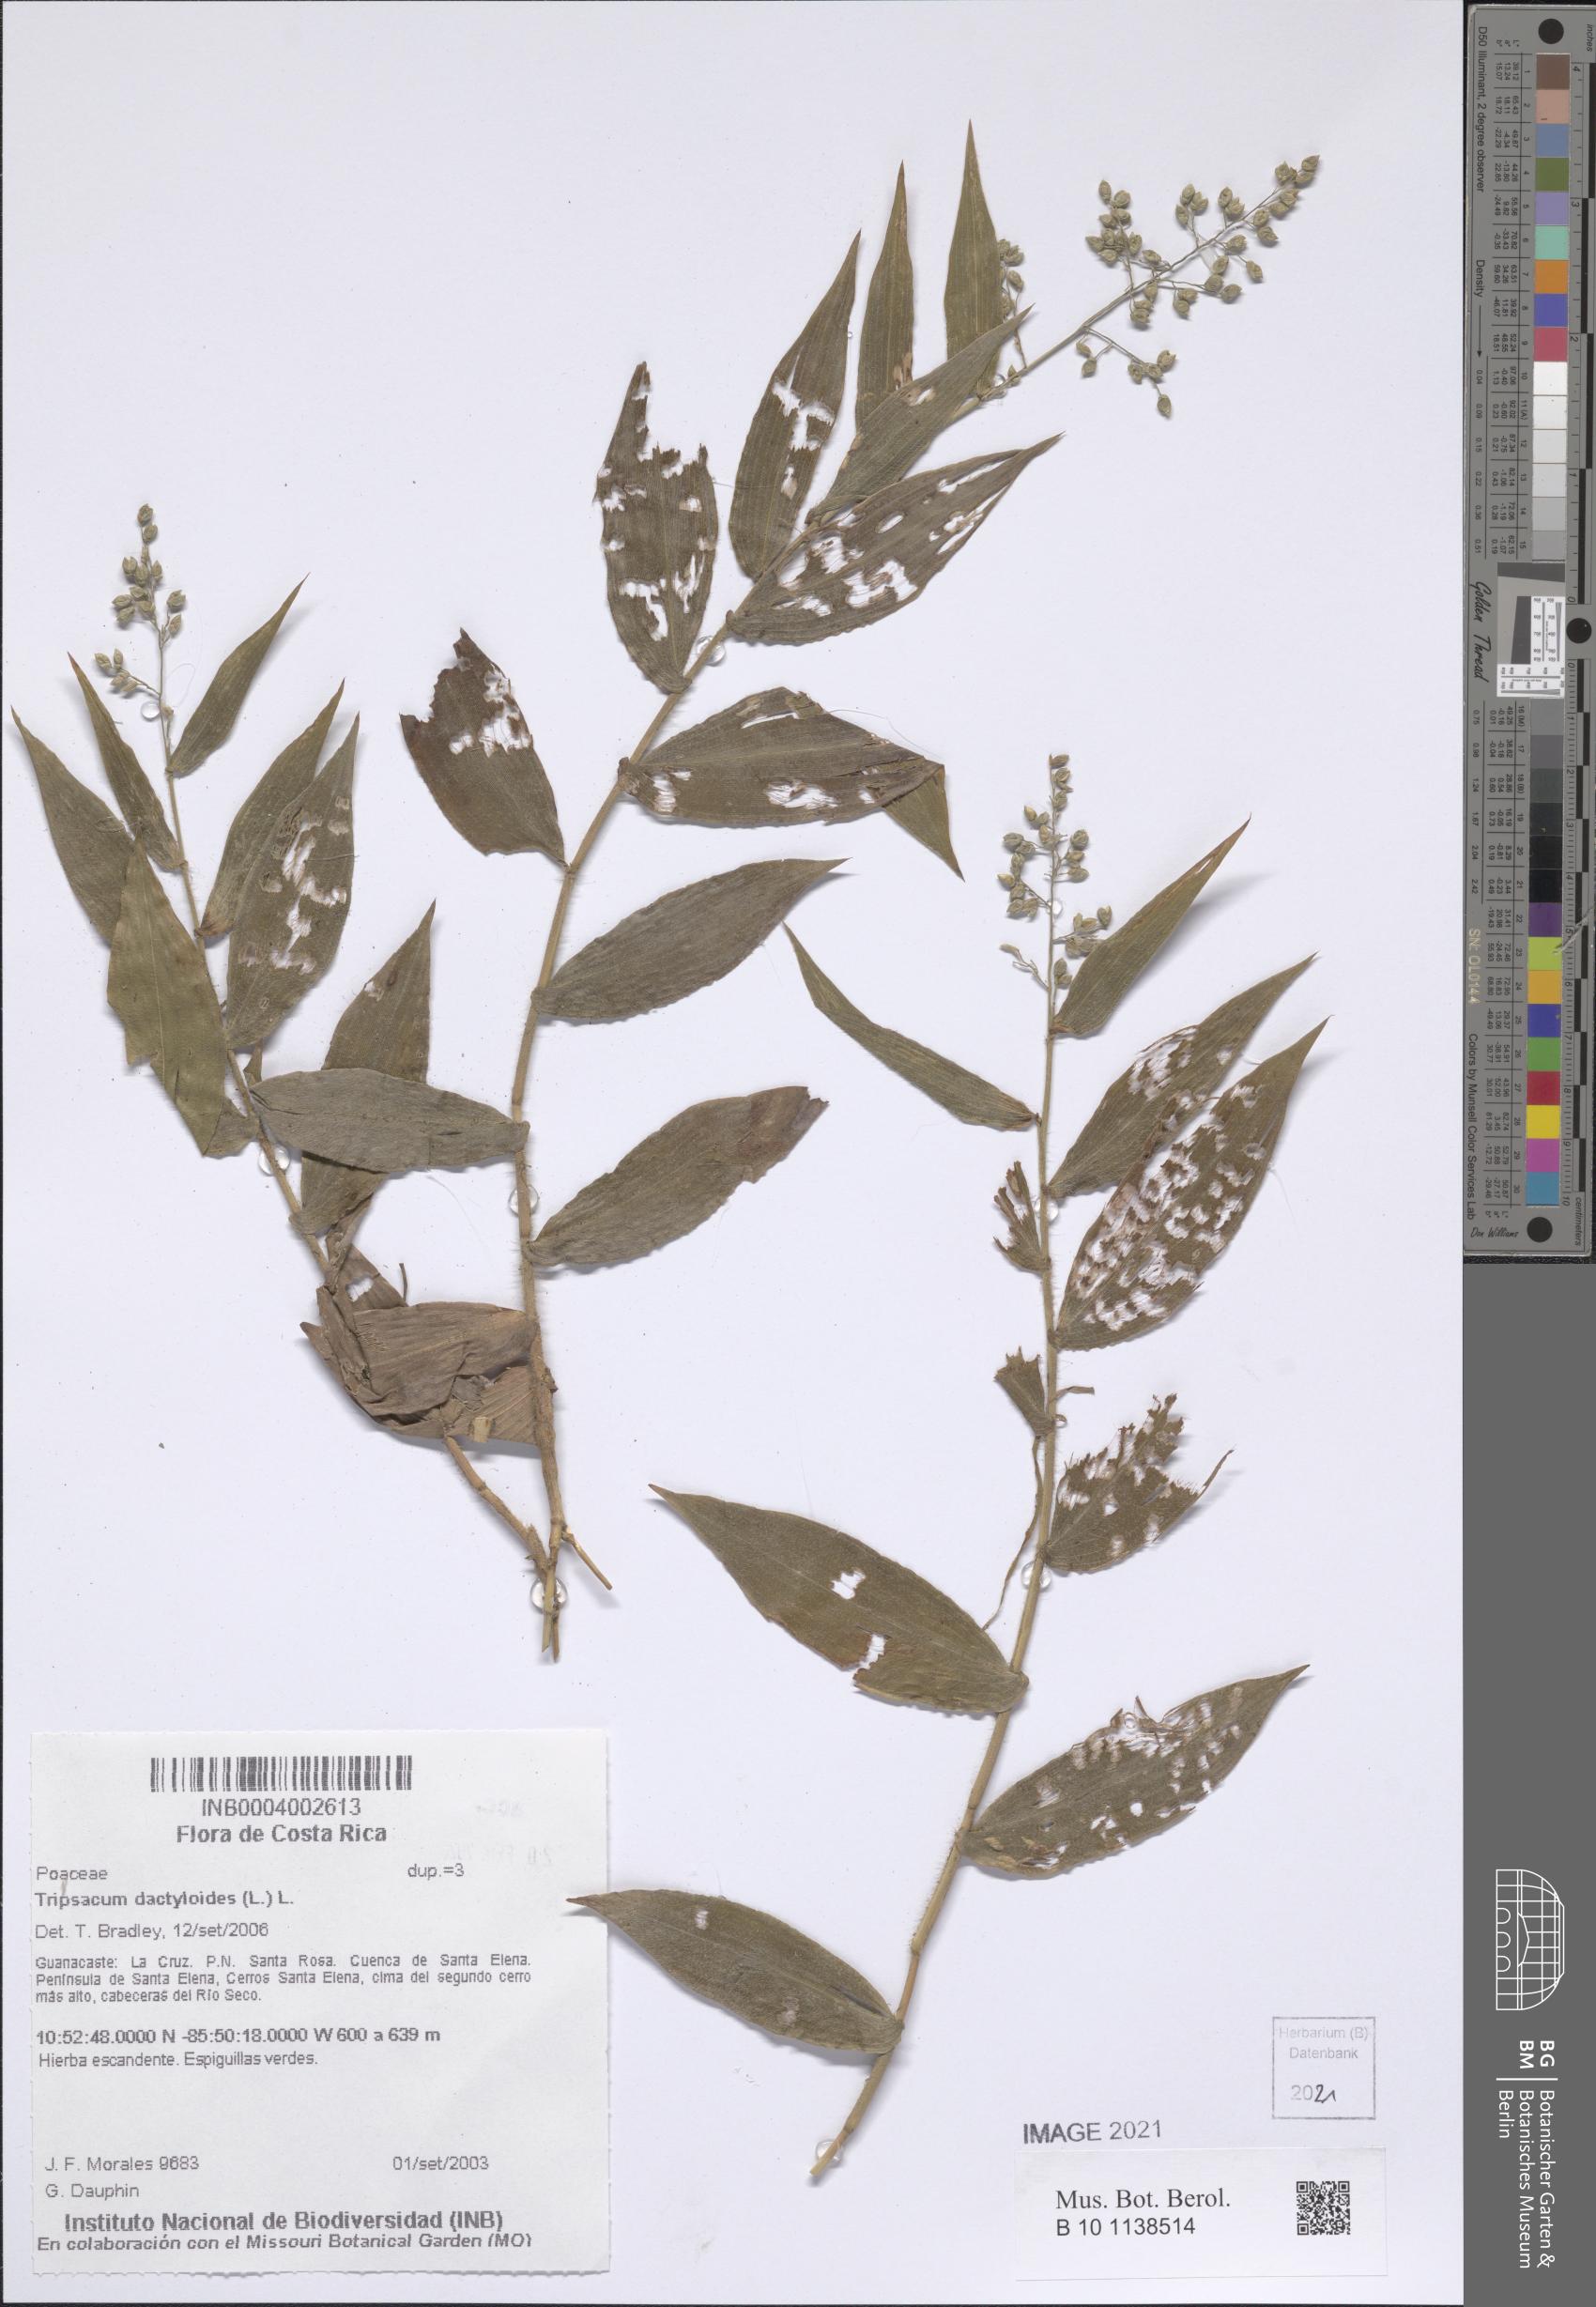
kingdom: Plantae
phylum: Tracheophyta
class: Liliopsida
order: Poales
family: Poaceae
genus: Lasiacis
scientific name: Lasiacis ruscifolia
